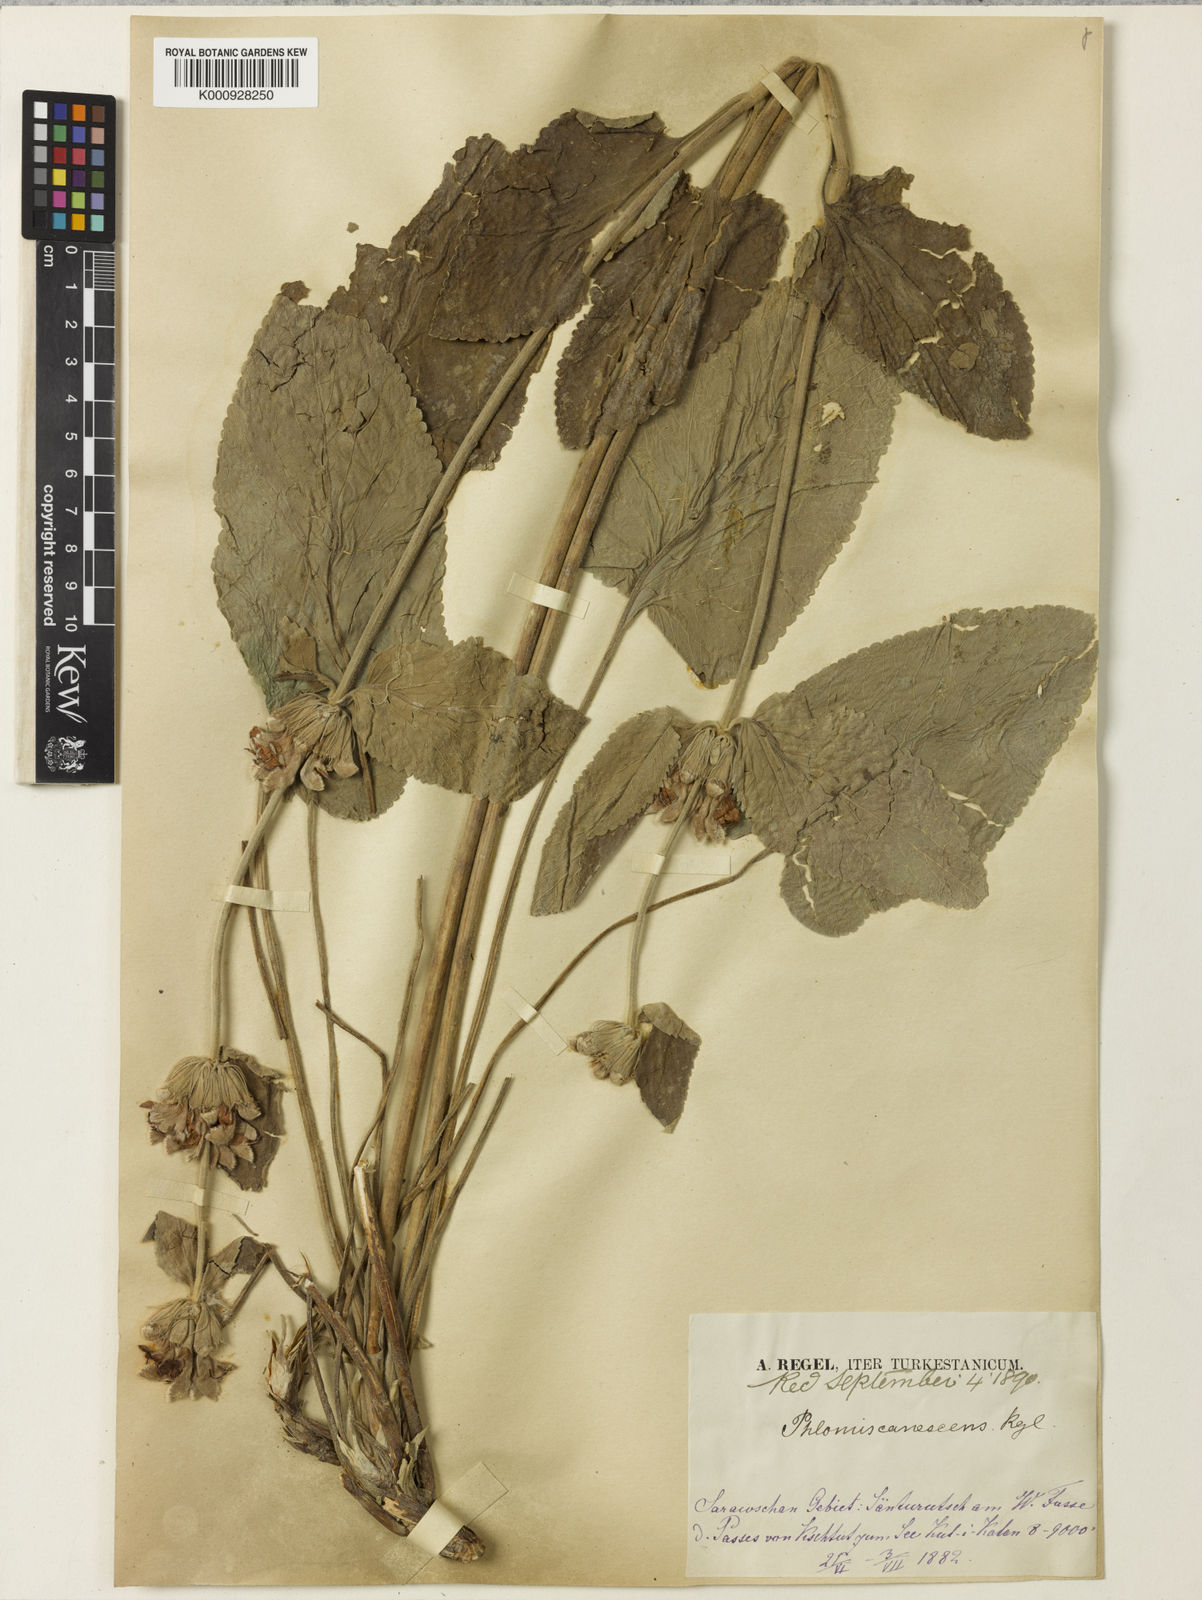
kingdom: Plantae
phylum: Tracheophyta
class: Magnoliopsida
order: Lamiales
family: Lamiaceae
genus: Phlomoides
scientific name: Phlomoides canescens
